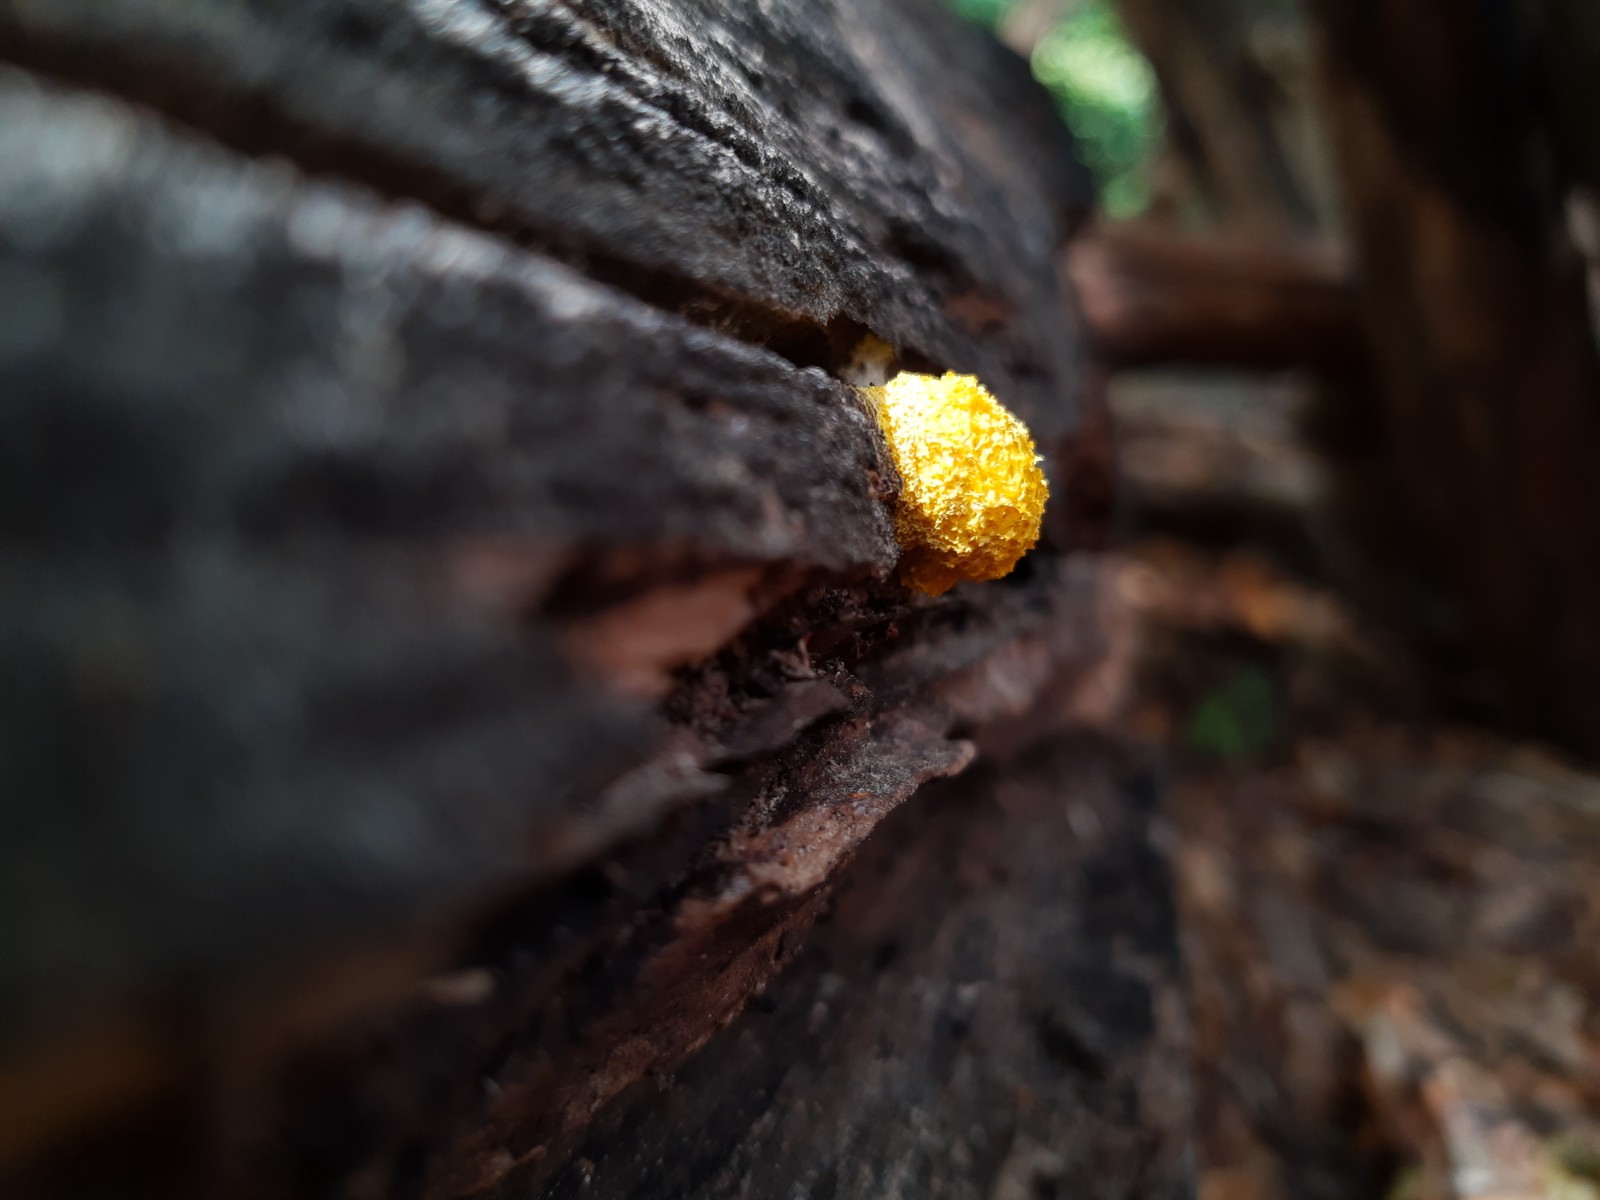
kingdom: Protozoa
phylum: Mycetozoa
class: Myxomycetes
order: Physarales
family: Physaraceae
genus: Fuligo
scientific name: Fuligo septica
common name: gul troldsmør
